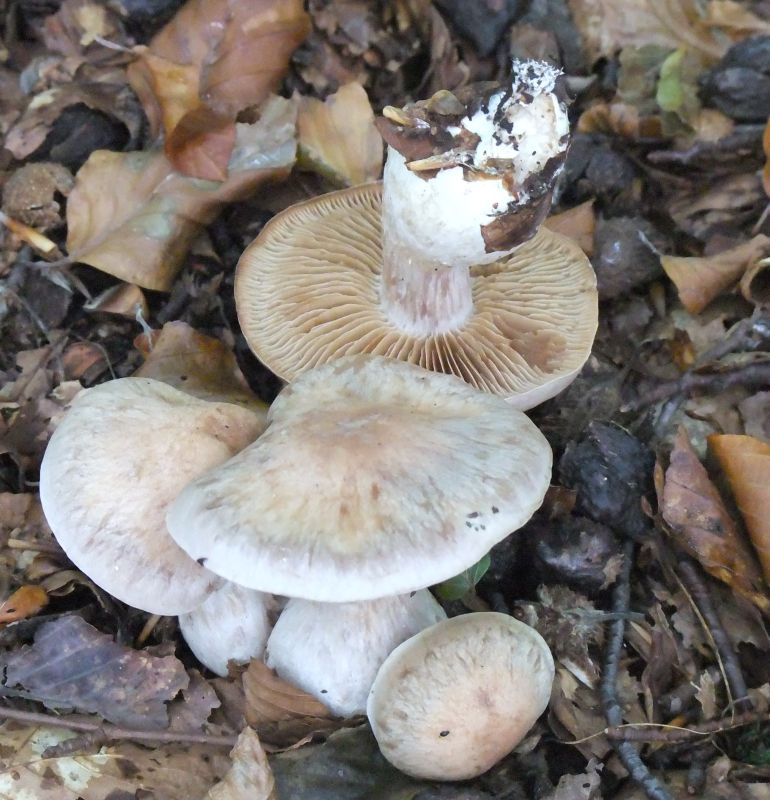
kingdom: Fungi
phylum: Basidiomycota
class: Agaricomycetes
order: Agaricales
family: Cortinariaceae
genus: Cortinarius
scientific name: Cortinarius turgidus
